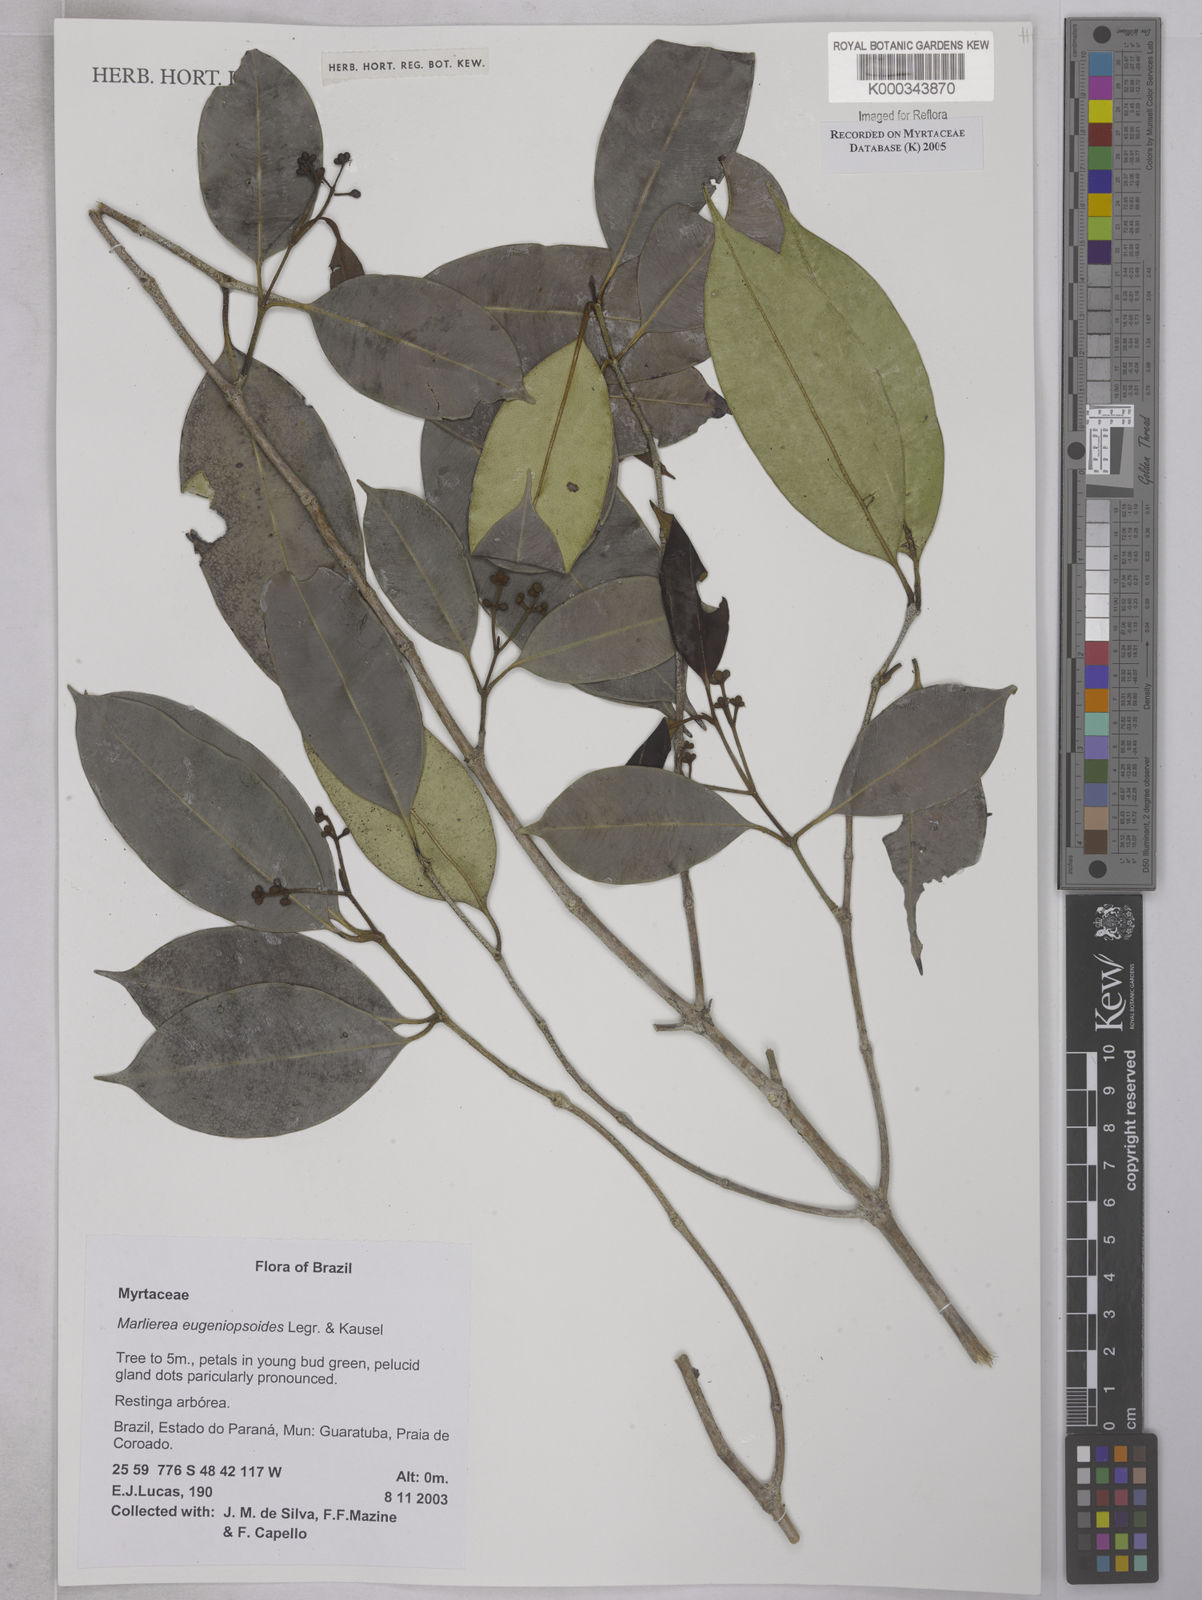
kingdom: Plantae
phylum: Tracheophyta
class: Magnoliopsida
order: Myrtales
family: Myrtaceae
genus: Myrcia
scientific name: Myrcia eugeniopsoides
